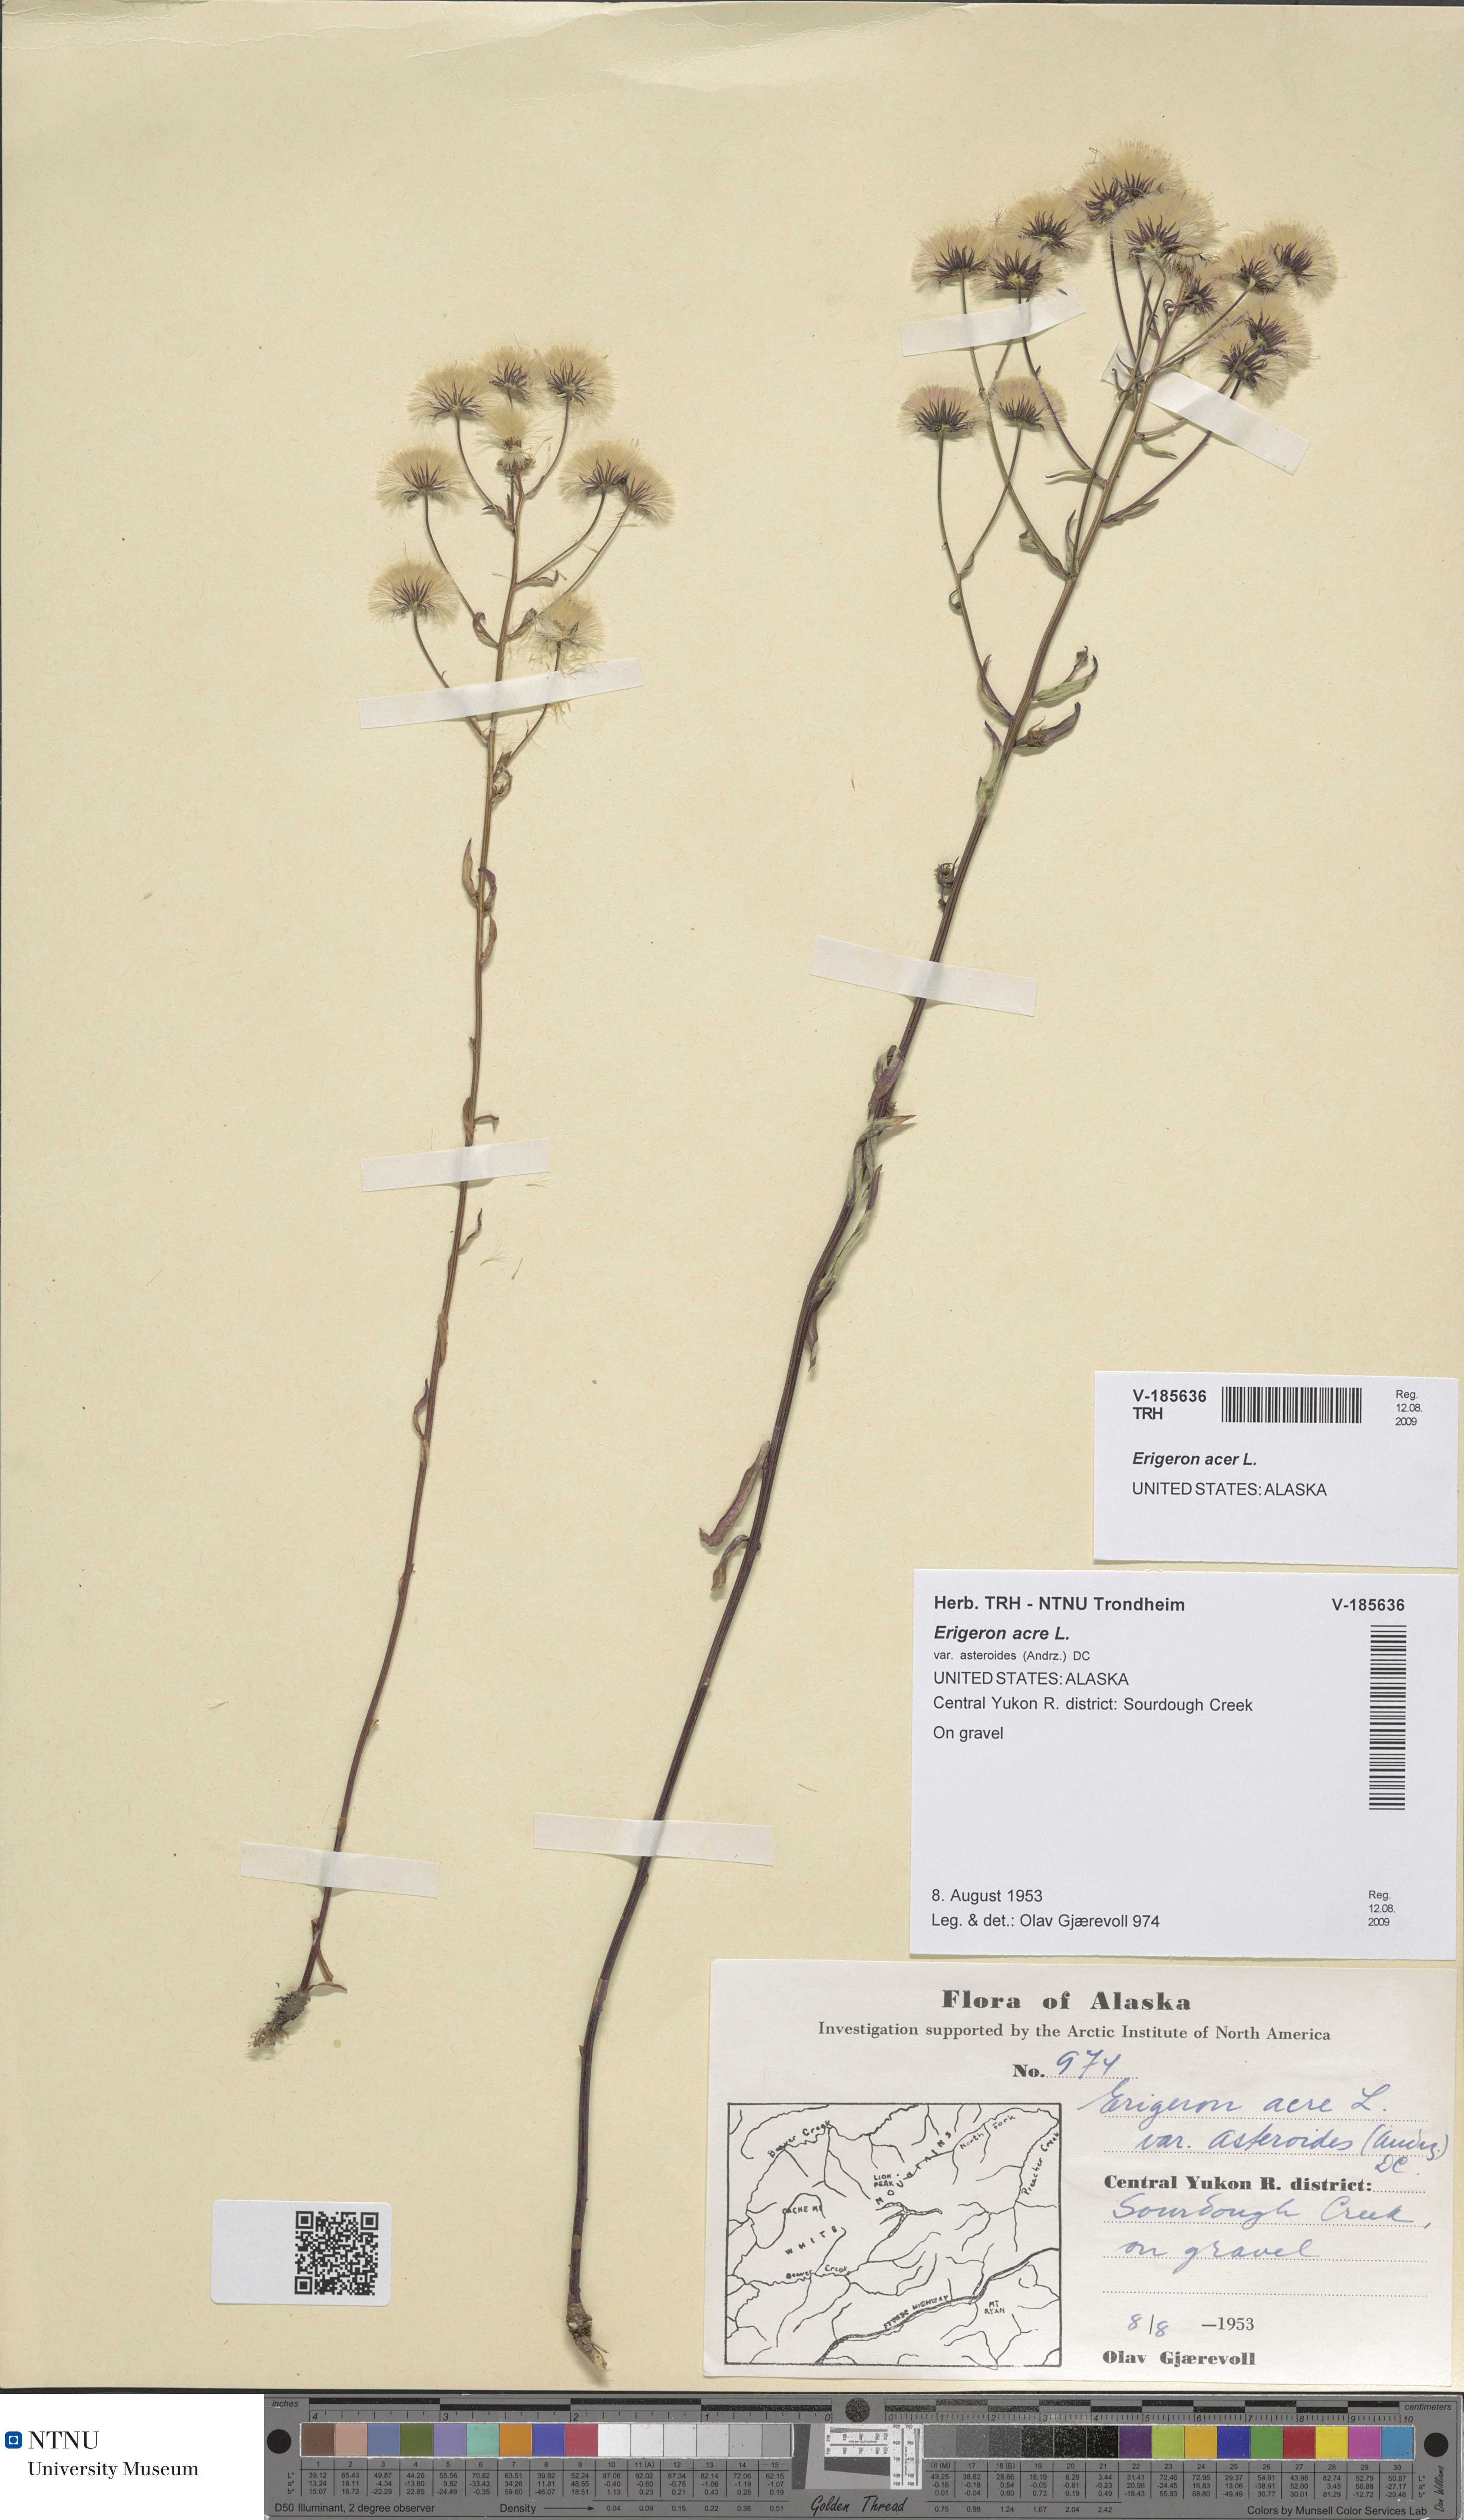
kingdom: Plantae
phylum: Tracheophyta
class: Magnoliopsida
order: Asterales
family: Asteraceae
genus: Erigeron
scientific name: Erigeron acris
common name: Blue fleabane
